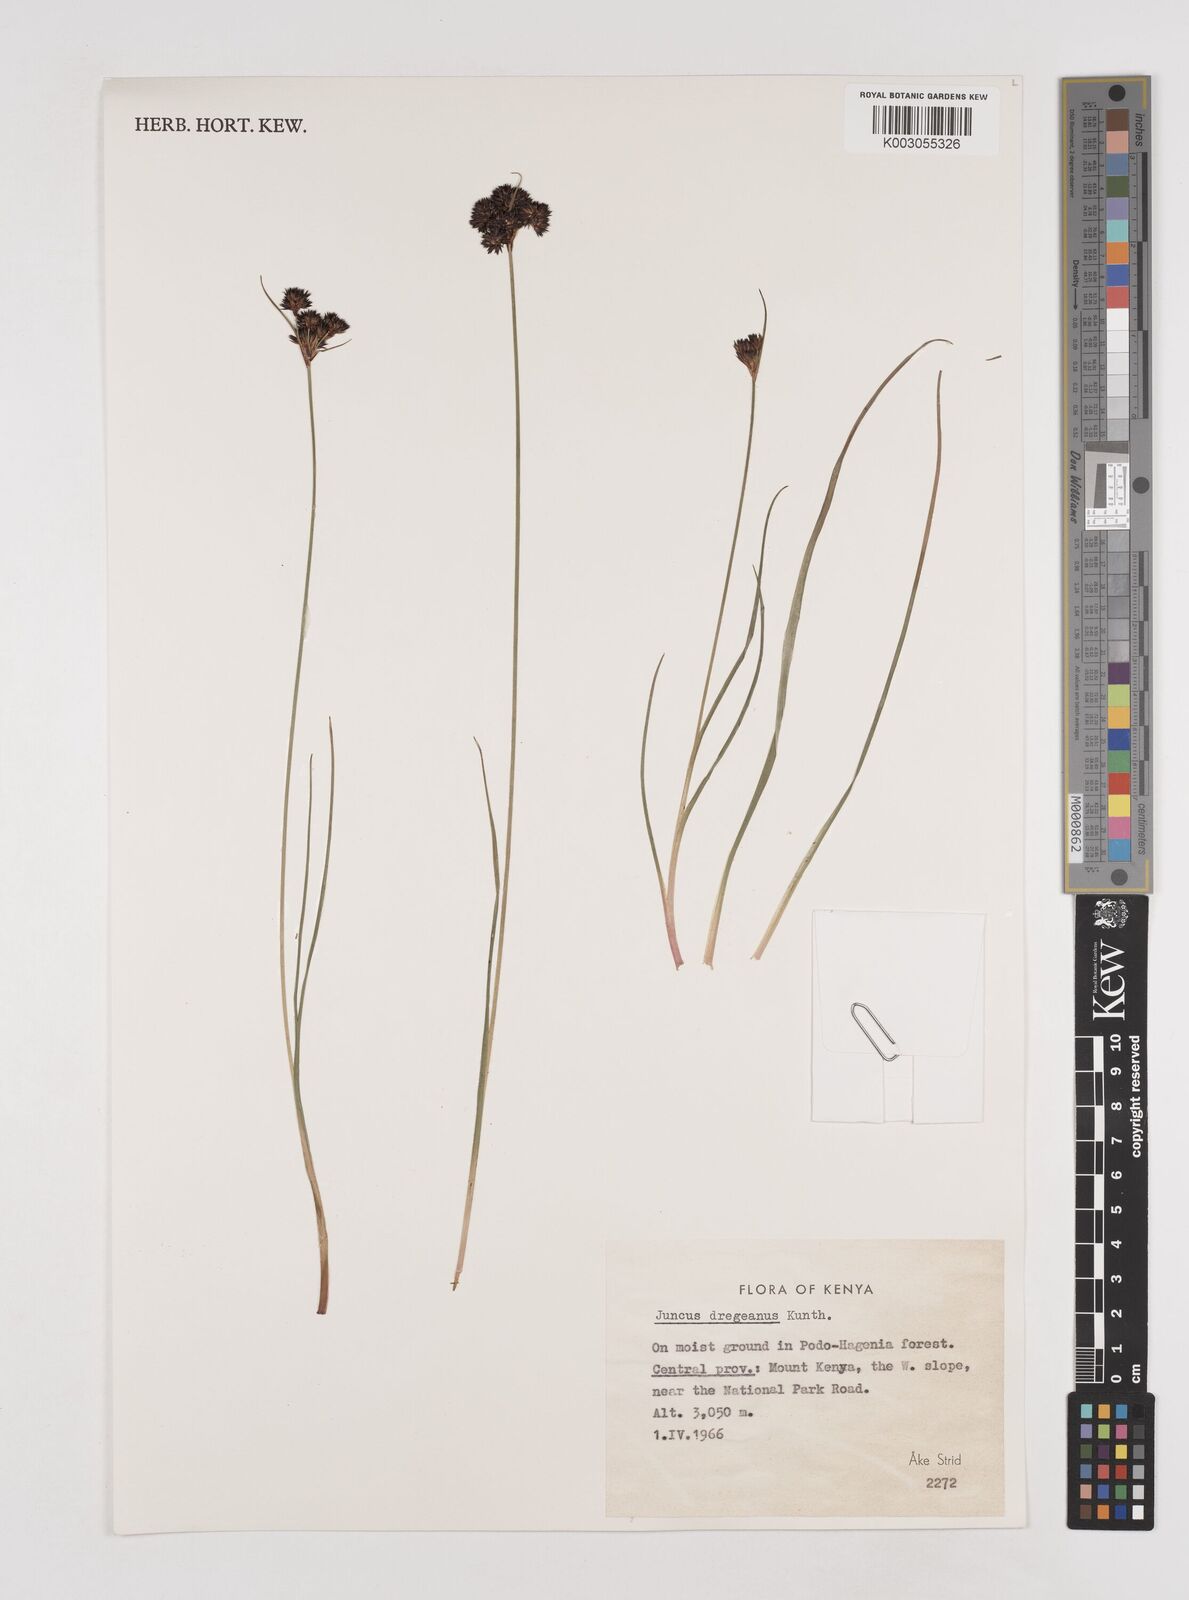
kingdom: Plantae
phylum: Tracheophyta
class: Liliopsida
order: Poales
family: Juncaceae
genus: Juncus
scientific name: Juncus dregeanus
